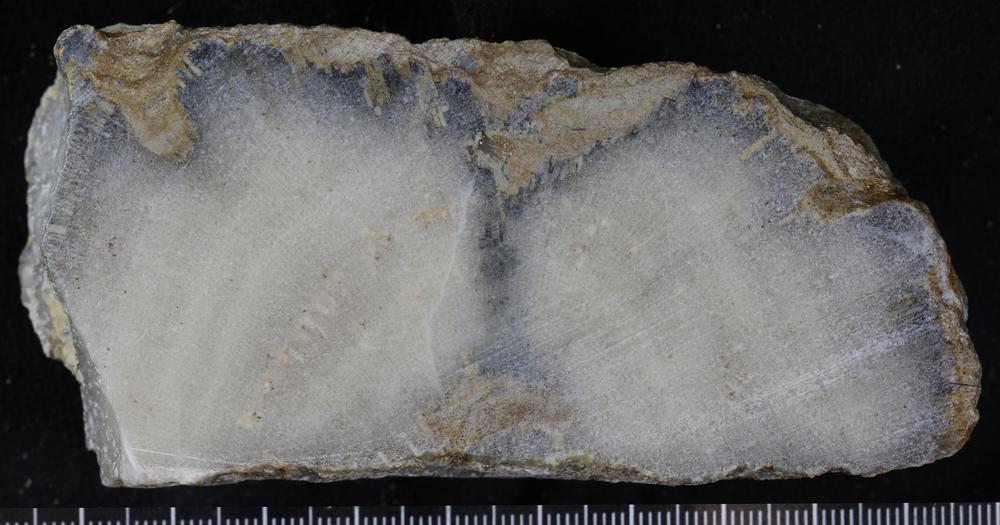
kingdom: Animalia
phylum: Bryozoa
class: Stenolaemata
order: Trepostomatida
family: Diplotrypidae
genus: Diplotrypa
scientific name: Diplotrypa petropolitana
